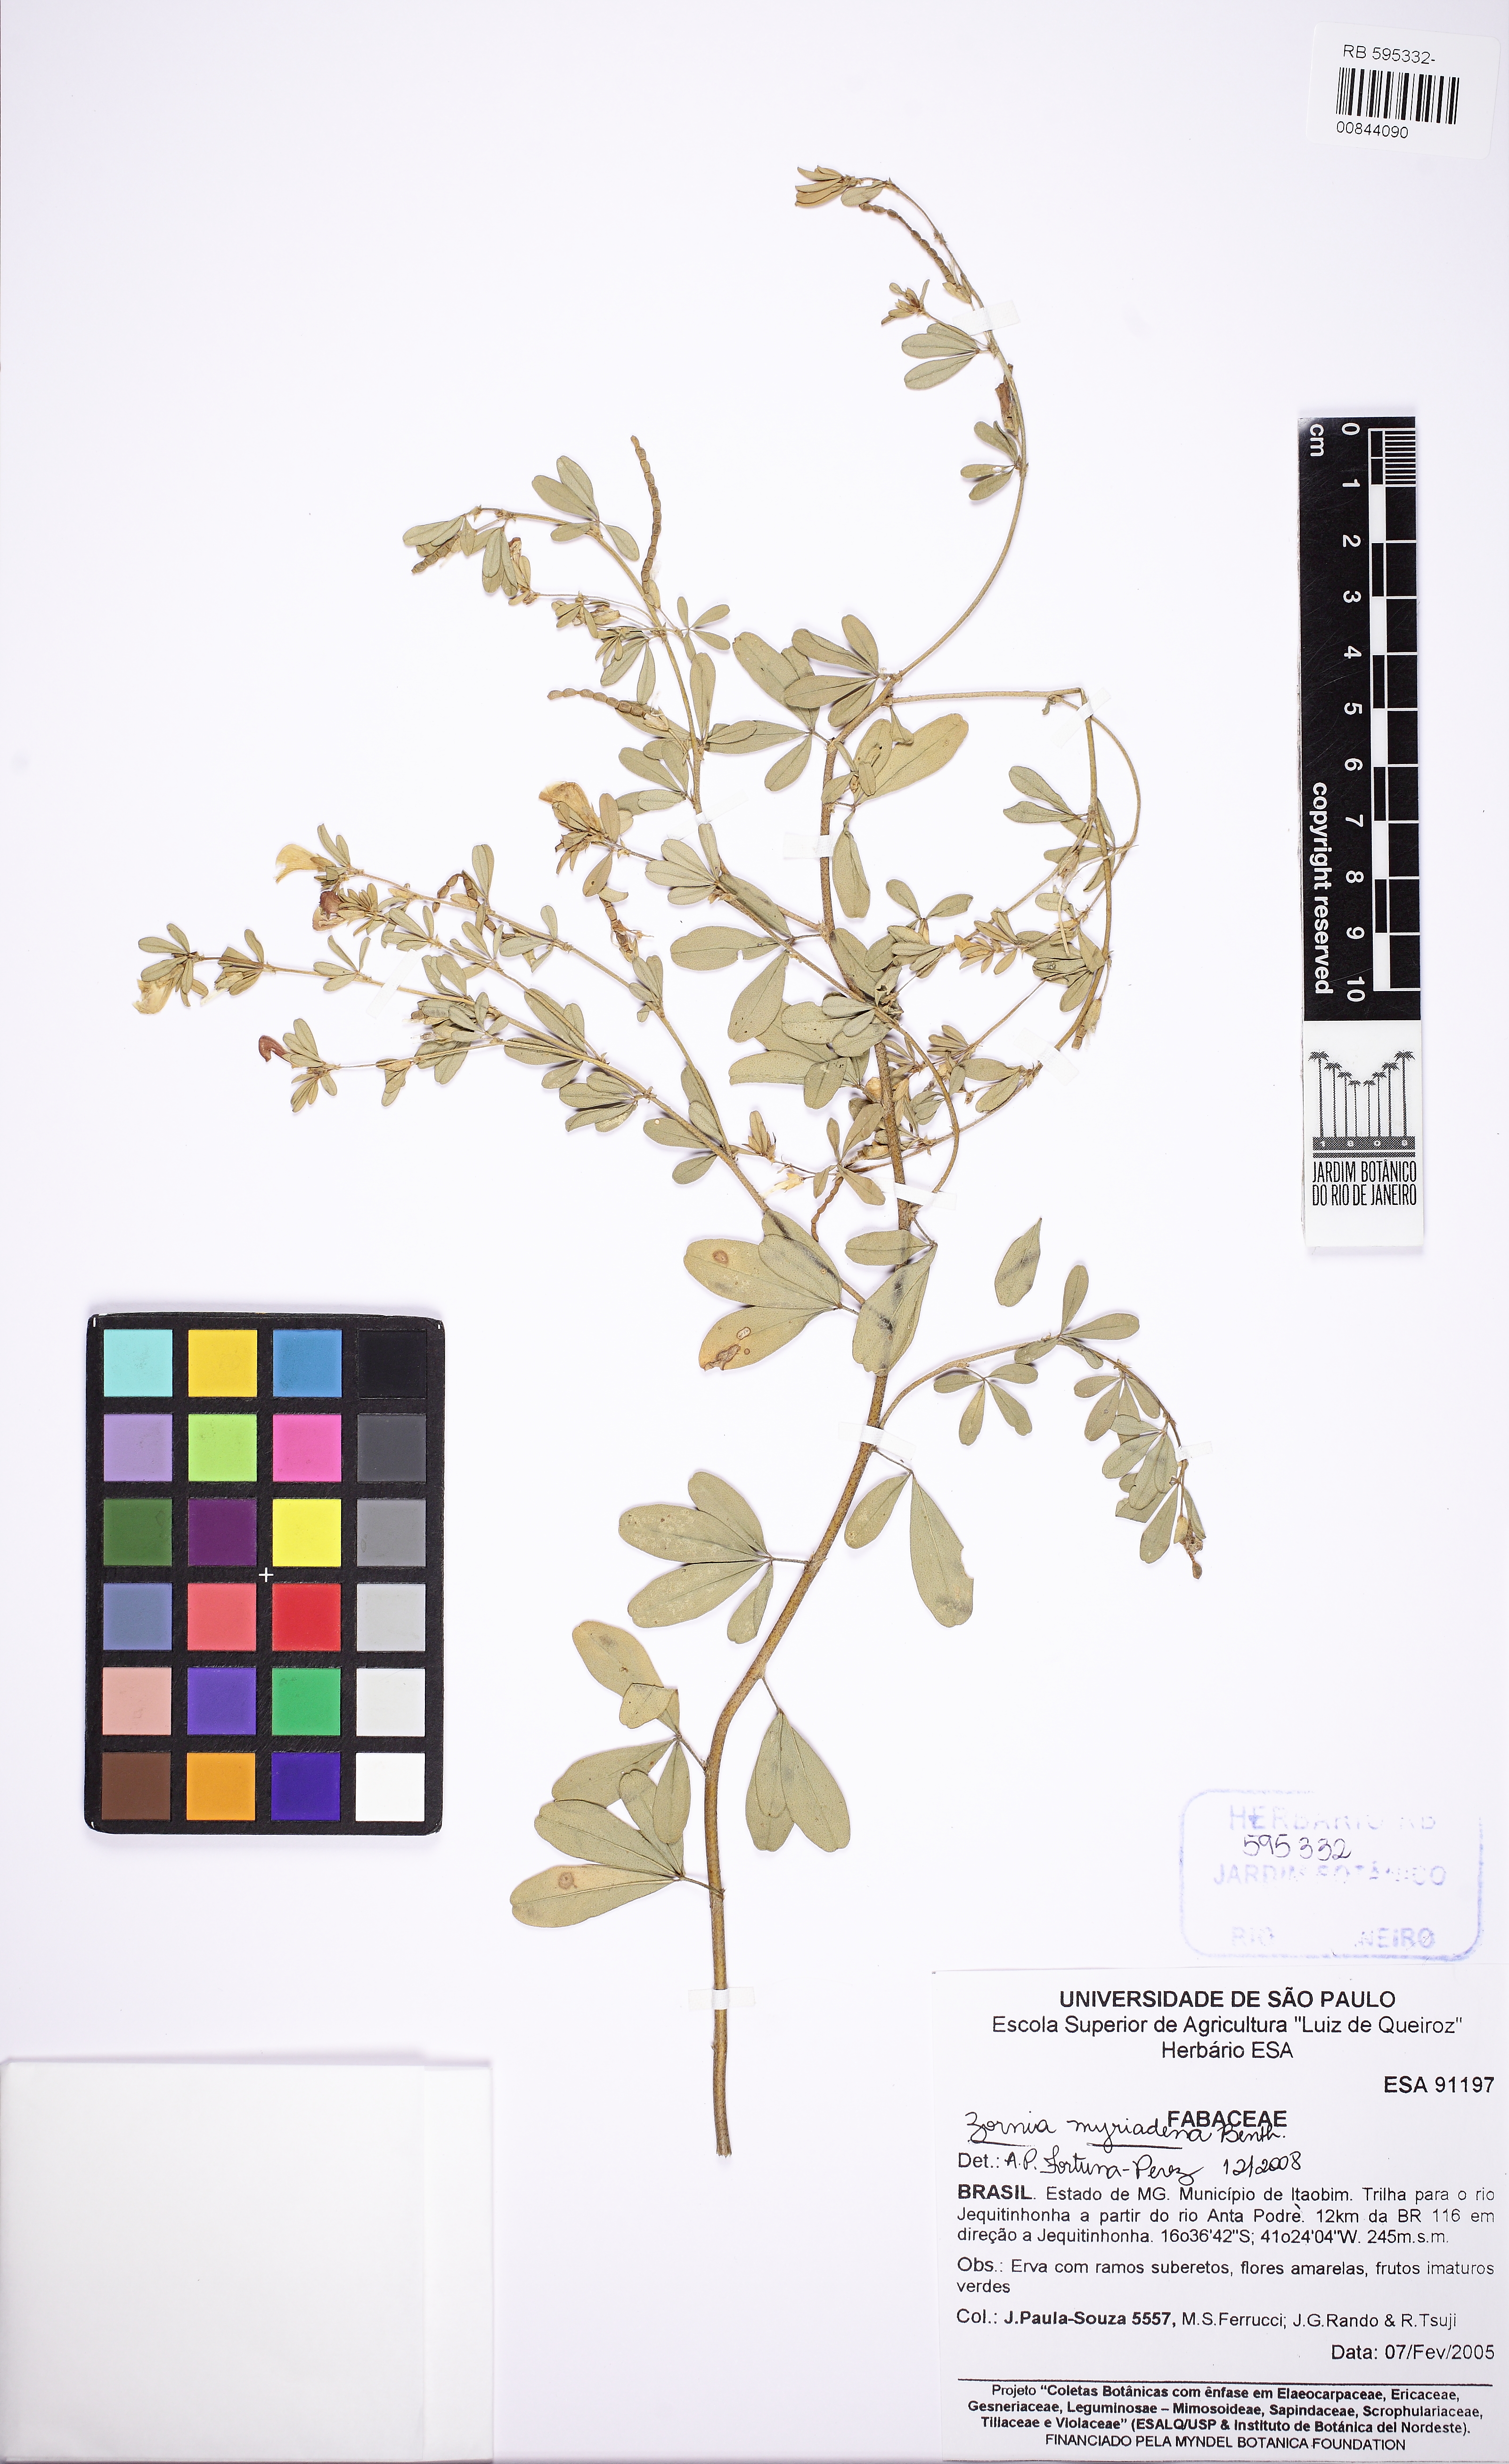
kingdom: Plantae
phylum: Tracheophyta
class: Magnoliopsida
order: Fabales
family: Fabaceae
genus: Zornia
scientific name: Zornia myriadena
